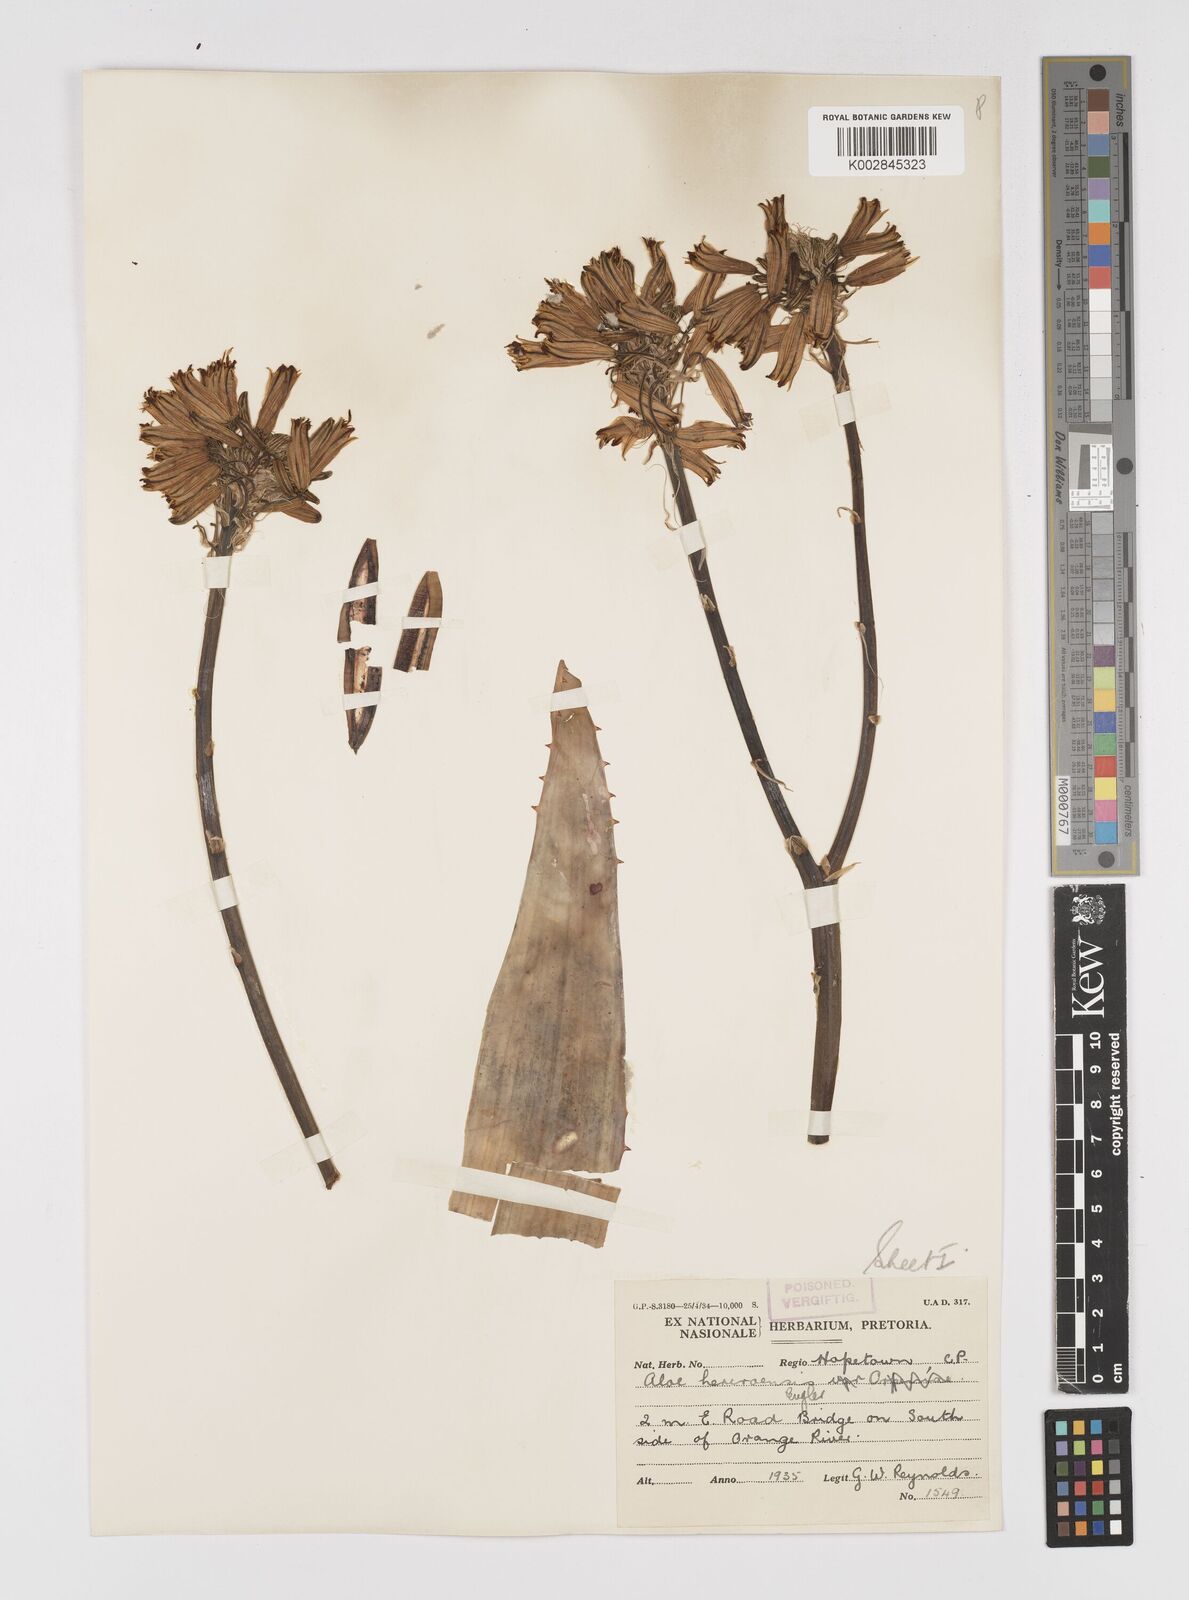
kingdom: Plantae
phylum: Tracheophyta
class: Liliopsida
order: Asparagales
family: Asphodelaceae
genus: Aloe
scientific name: Aloe hereroensis
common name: Herero aloe
